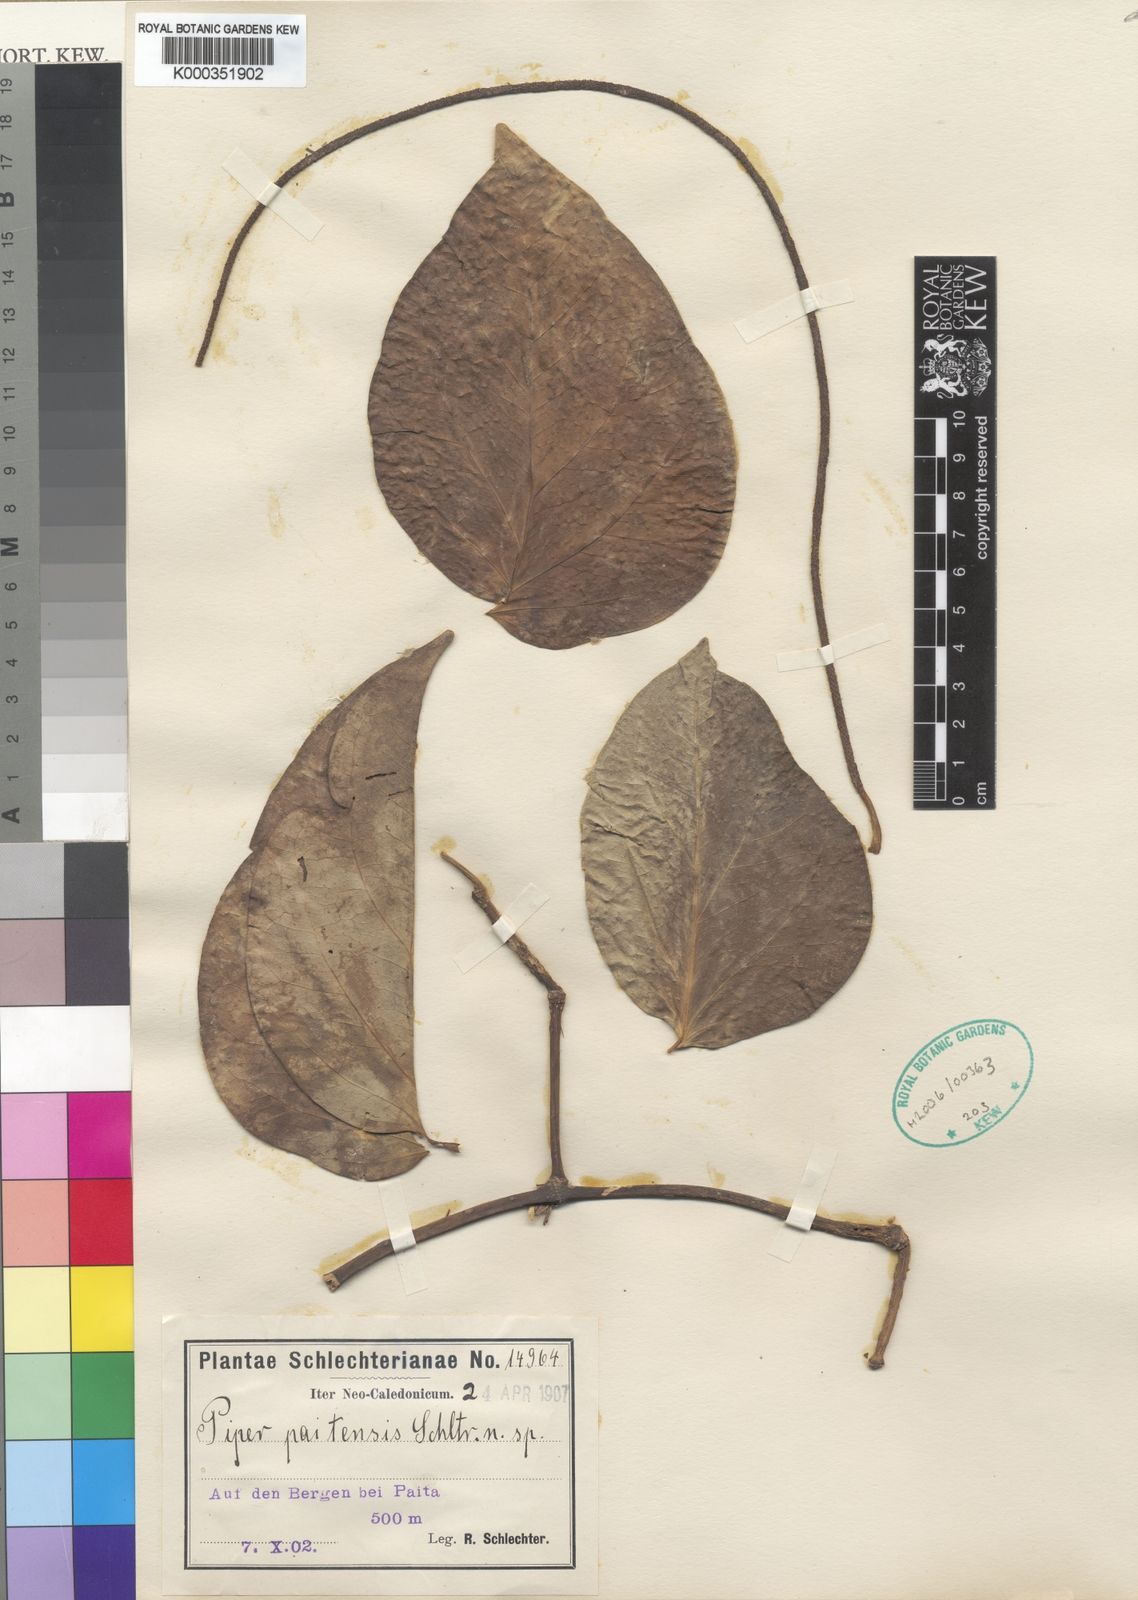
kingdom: Plantae
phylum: Tracheophyta
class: Magnoliopsida
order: Piperales
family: Piperaceae
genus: Piper
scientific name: Piper insectifugum
